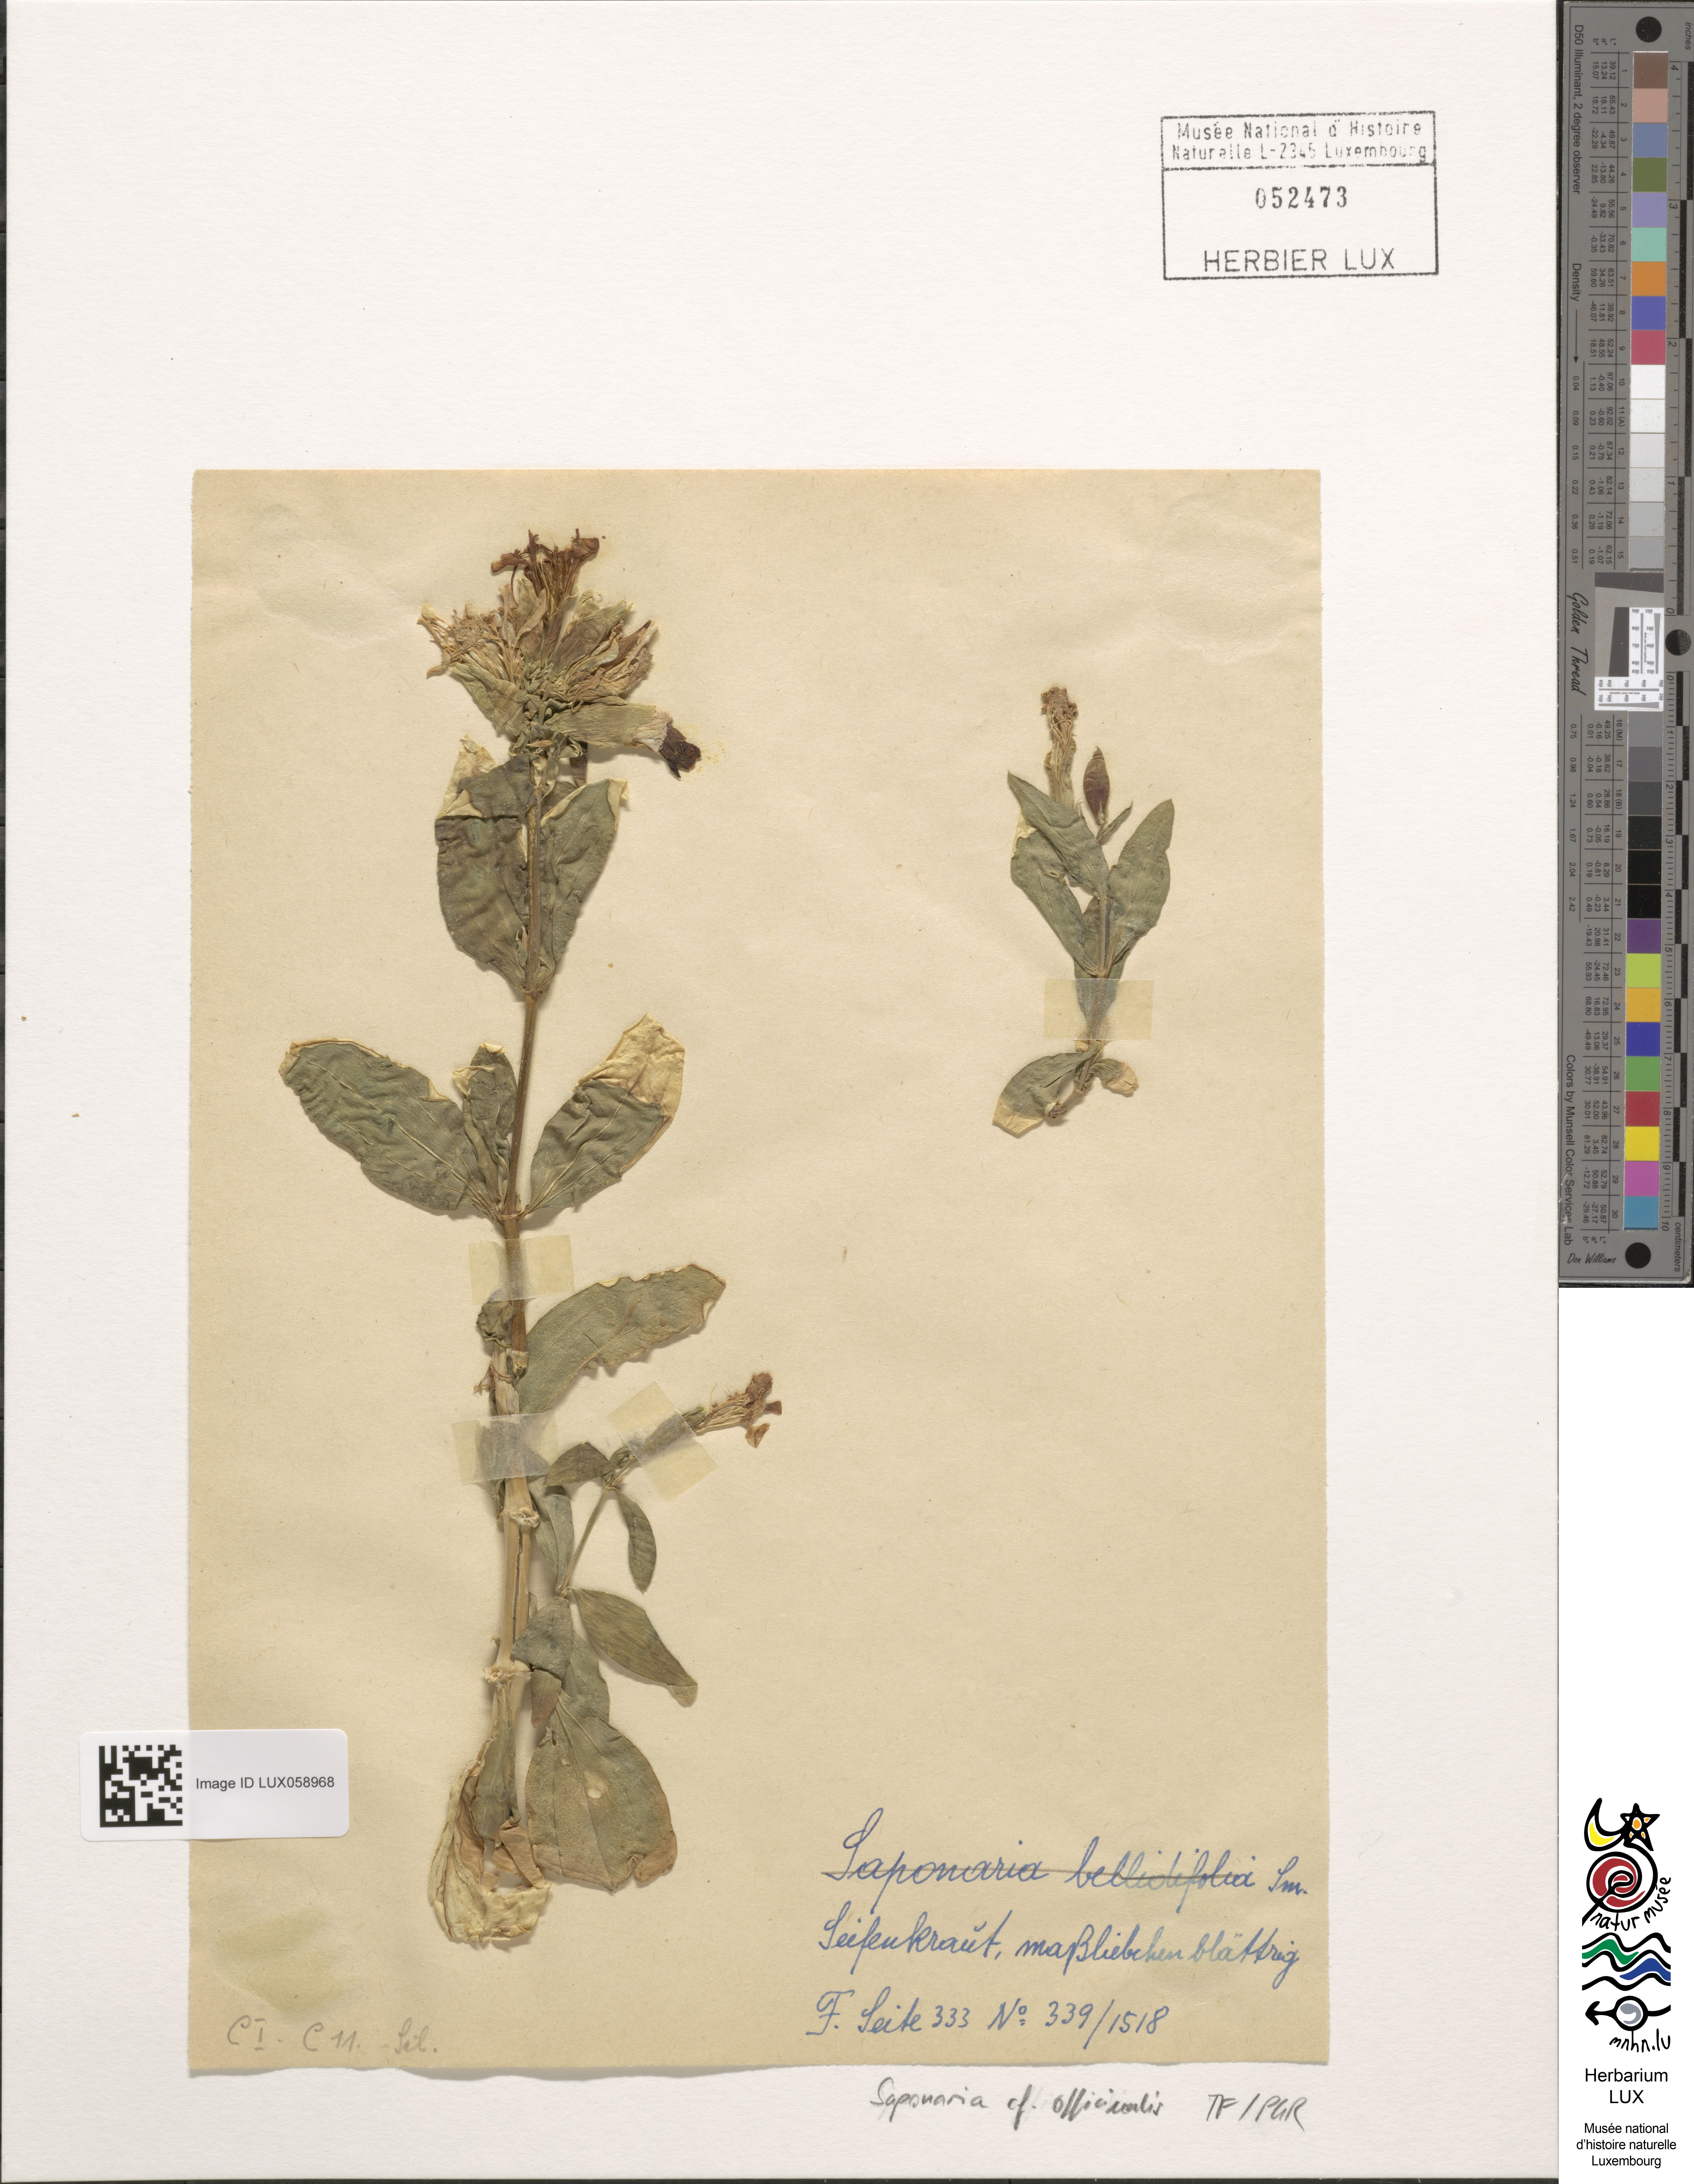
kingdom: Plantae
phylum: Tracheophyta
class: Magnoliopsida
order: Caryophyllales
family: Caryophyllaceae
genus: Saponaria
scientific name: Saponaria officinalis
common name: Soapwort
